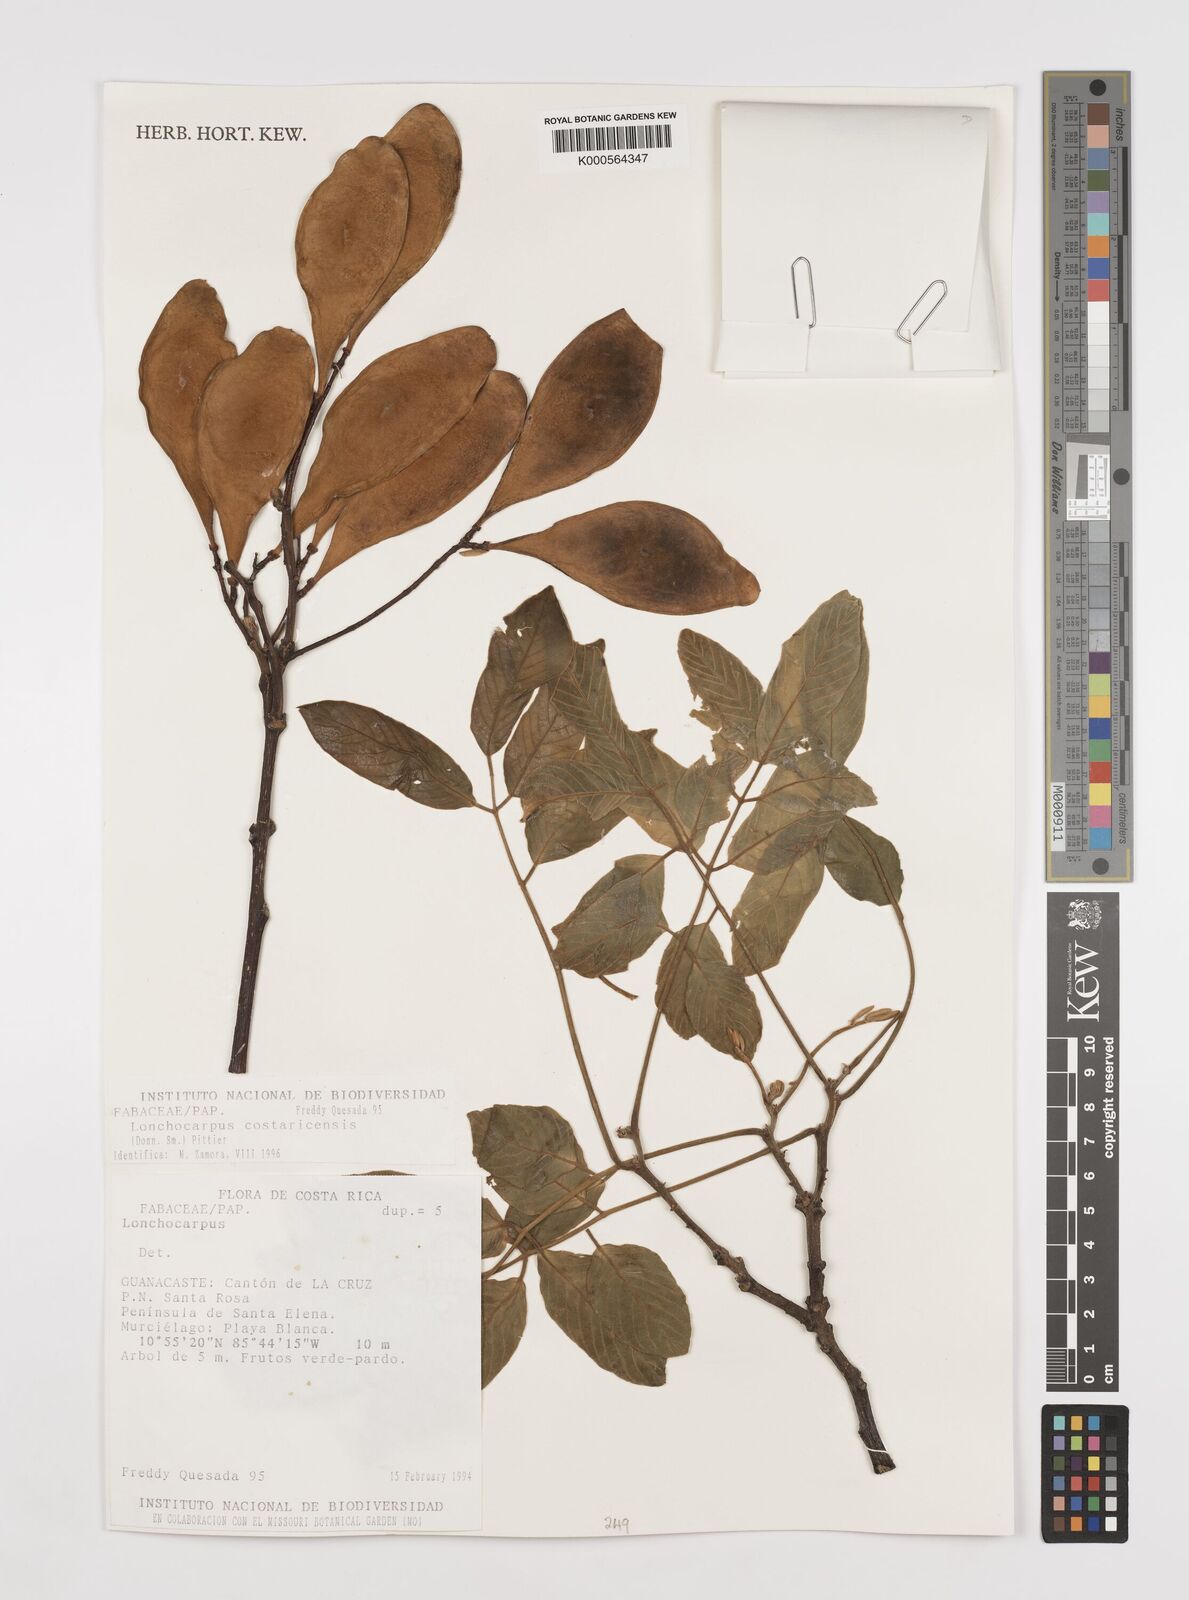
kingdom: Plantae
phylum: Tracheophyta
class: Magnoliopsida
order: Fabales
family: Fabaceae
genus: Lonchocarpus
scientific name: Lonchocarpus costaricensis
